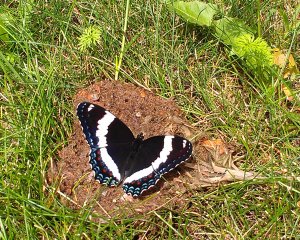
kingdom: Animalia
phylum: Arthropoda
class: Insecta
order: Lepidoptera
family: Nymphalidae
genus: Limenitis
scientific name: Limenitis arthemis
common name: Red-spotted Admiral
